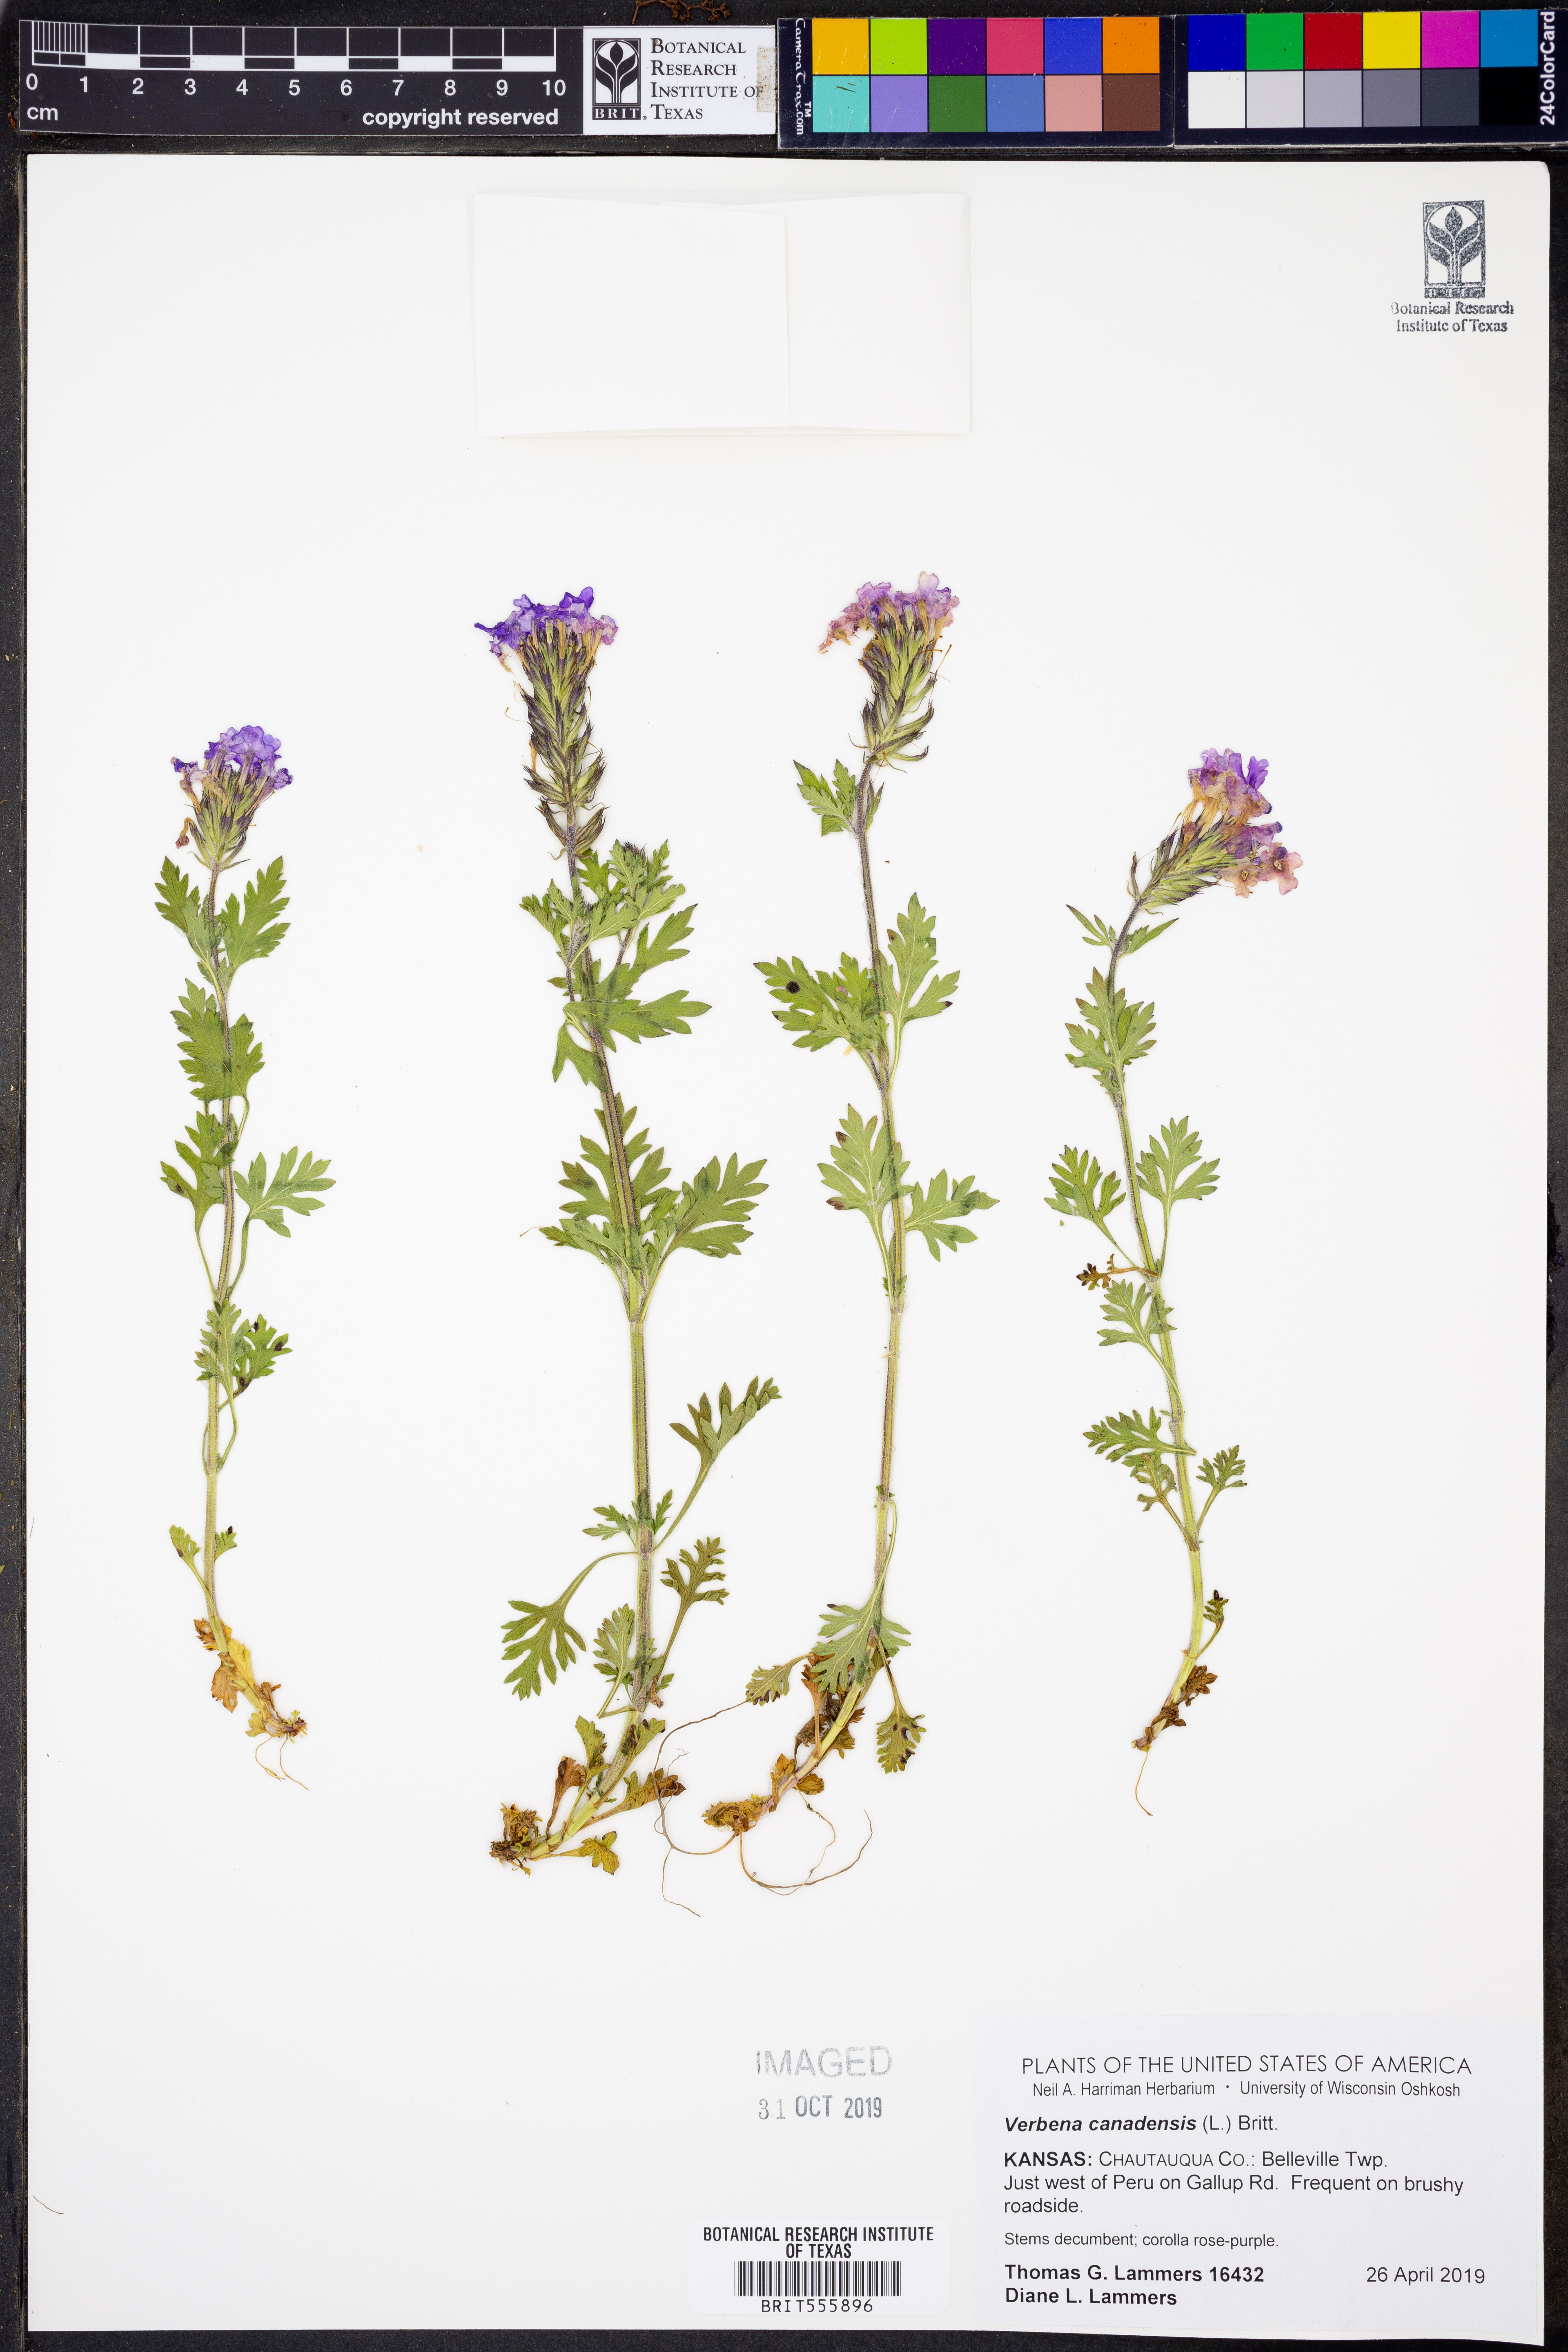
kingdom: Plantae
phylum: Tracheophyta
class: Magnoliopsida
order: Lamiales
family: Verbenaceae
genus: Verbena
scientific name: Verbena canadensis
